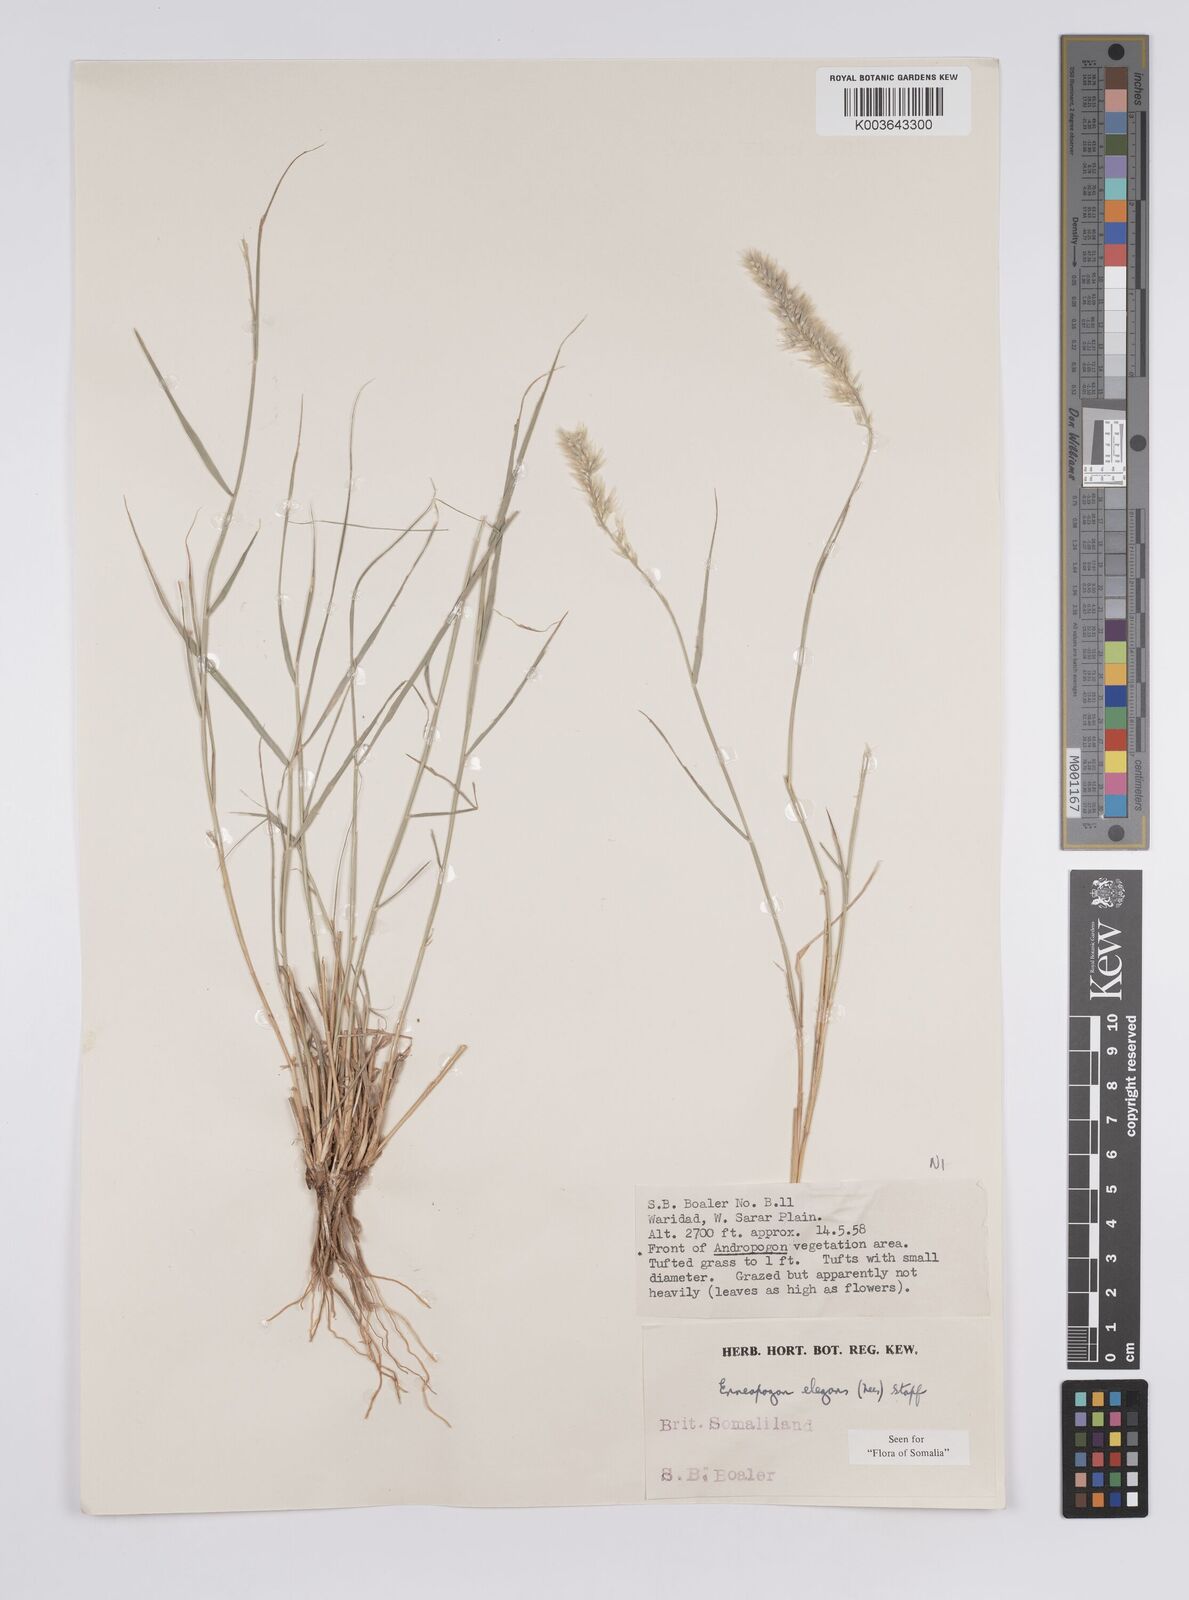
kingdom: Plantae
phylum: Tracheophyta
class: Liliopsida
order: Poales
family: Poaceae
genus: Enneapogon
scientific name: Enneapogon persicus
